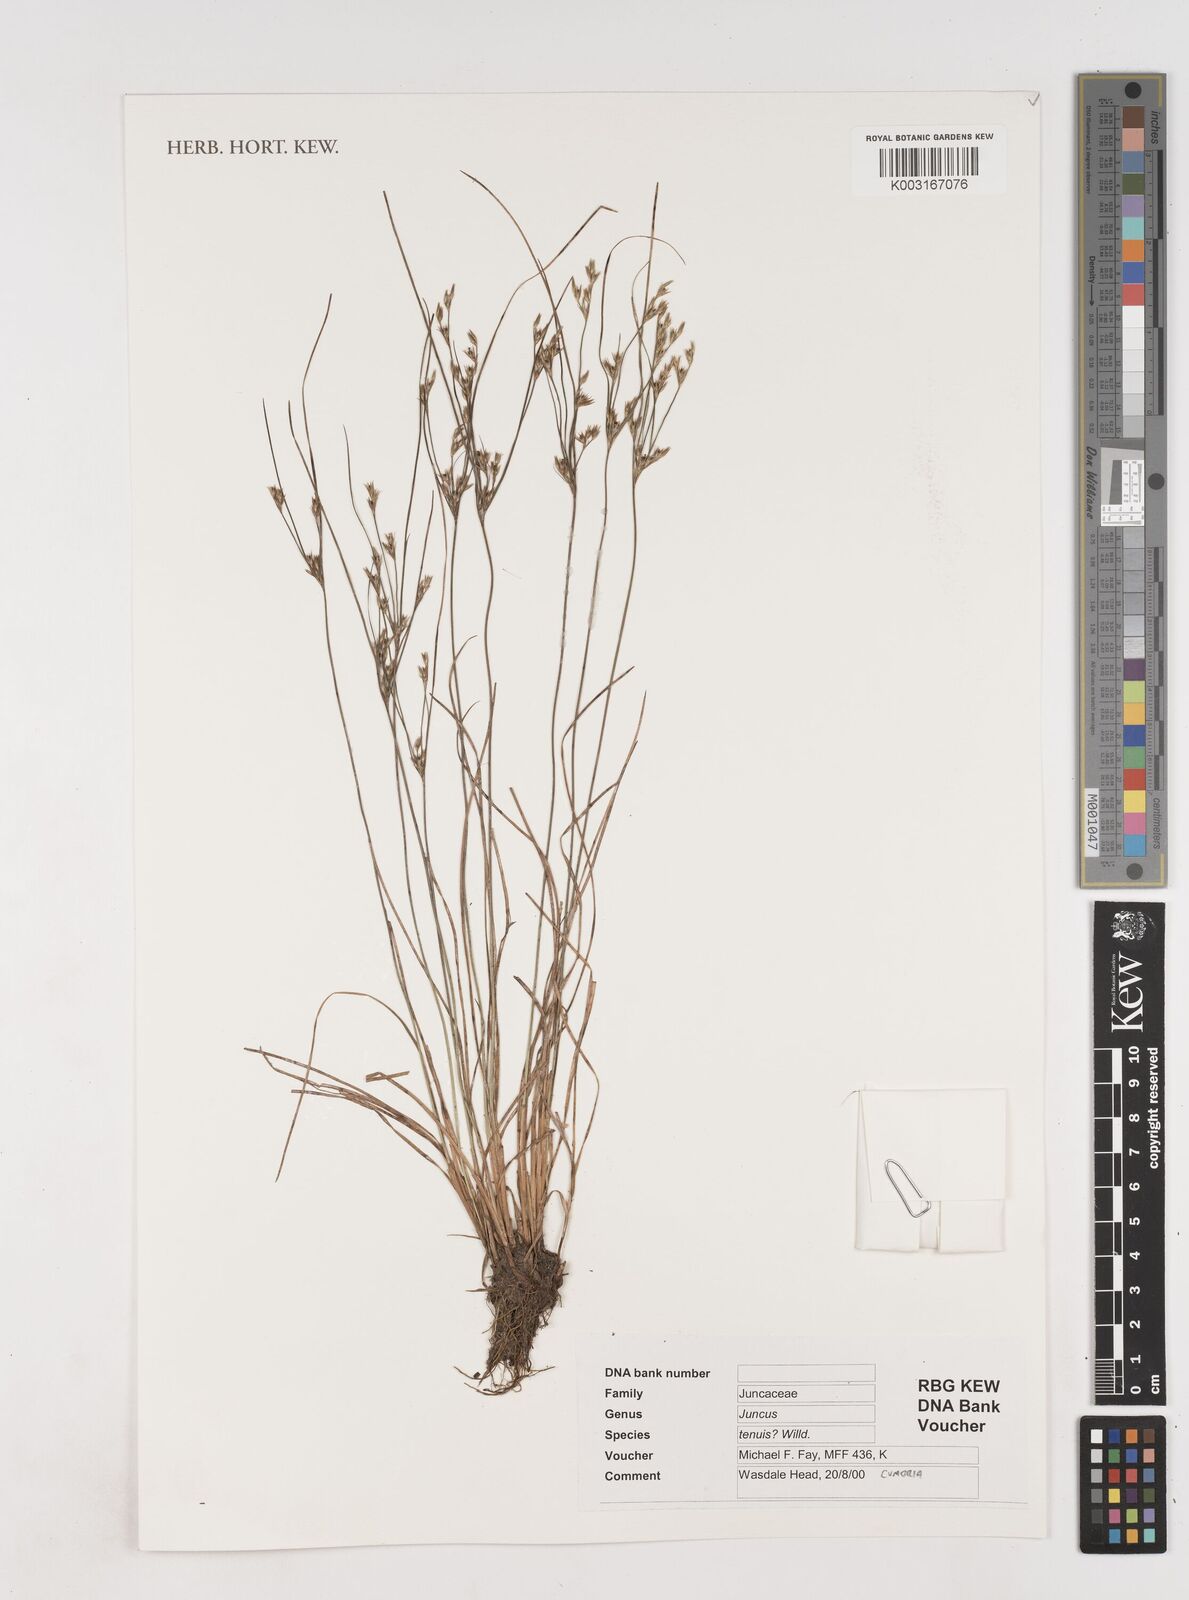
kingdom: Plantae
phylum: Tracheophyta
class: Liliopsida
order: Poales
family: Juncaceae
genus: Juncus
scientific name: Juncus tenuis
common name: Slender rush
